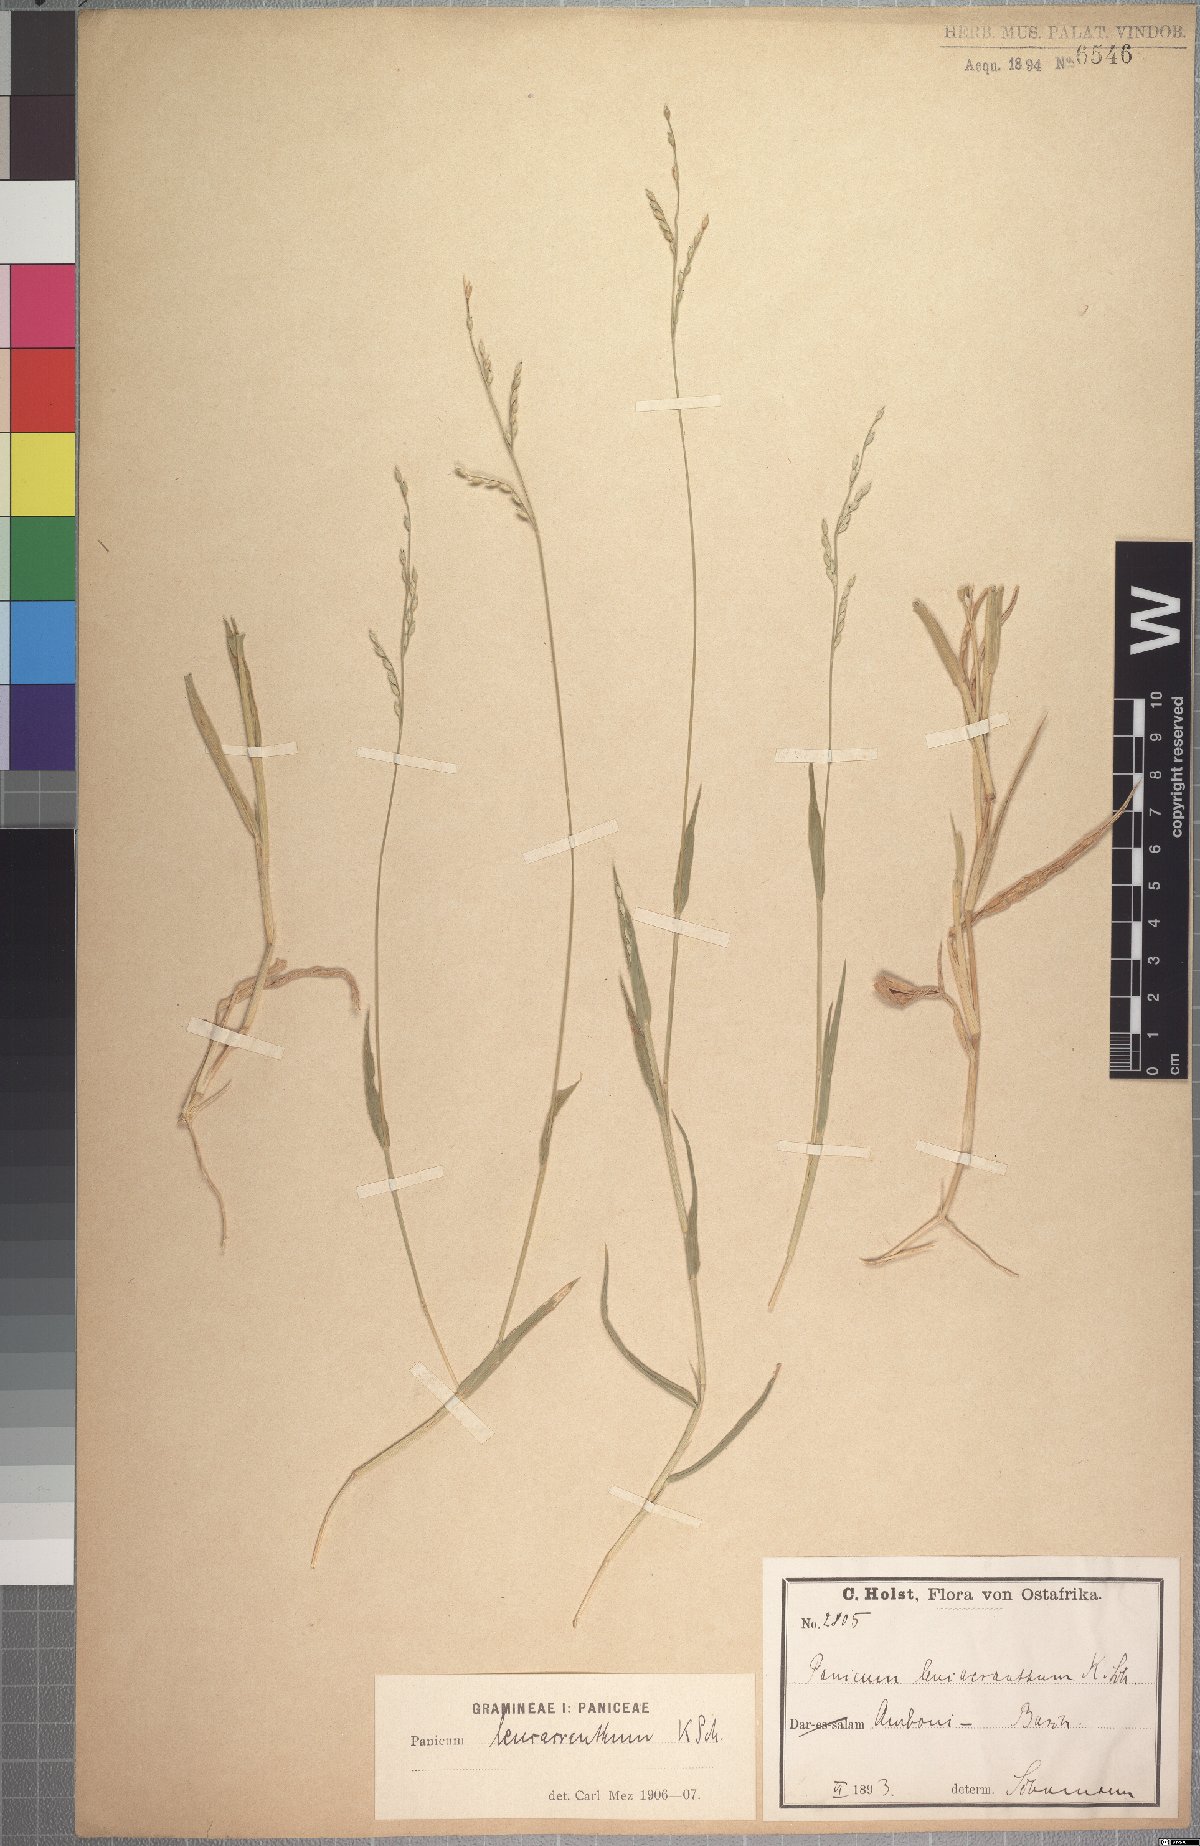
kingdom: Plantae
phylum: Tracheophyta
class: Liliopsida
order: Poales
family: Poaceae
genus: Urochloa
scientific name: Urochloa xantholeuca
